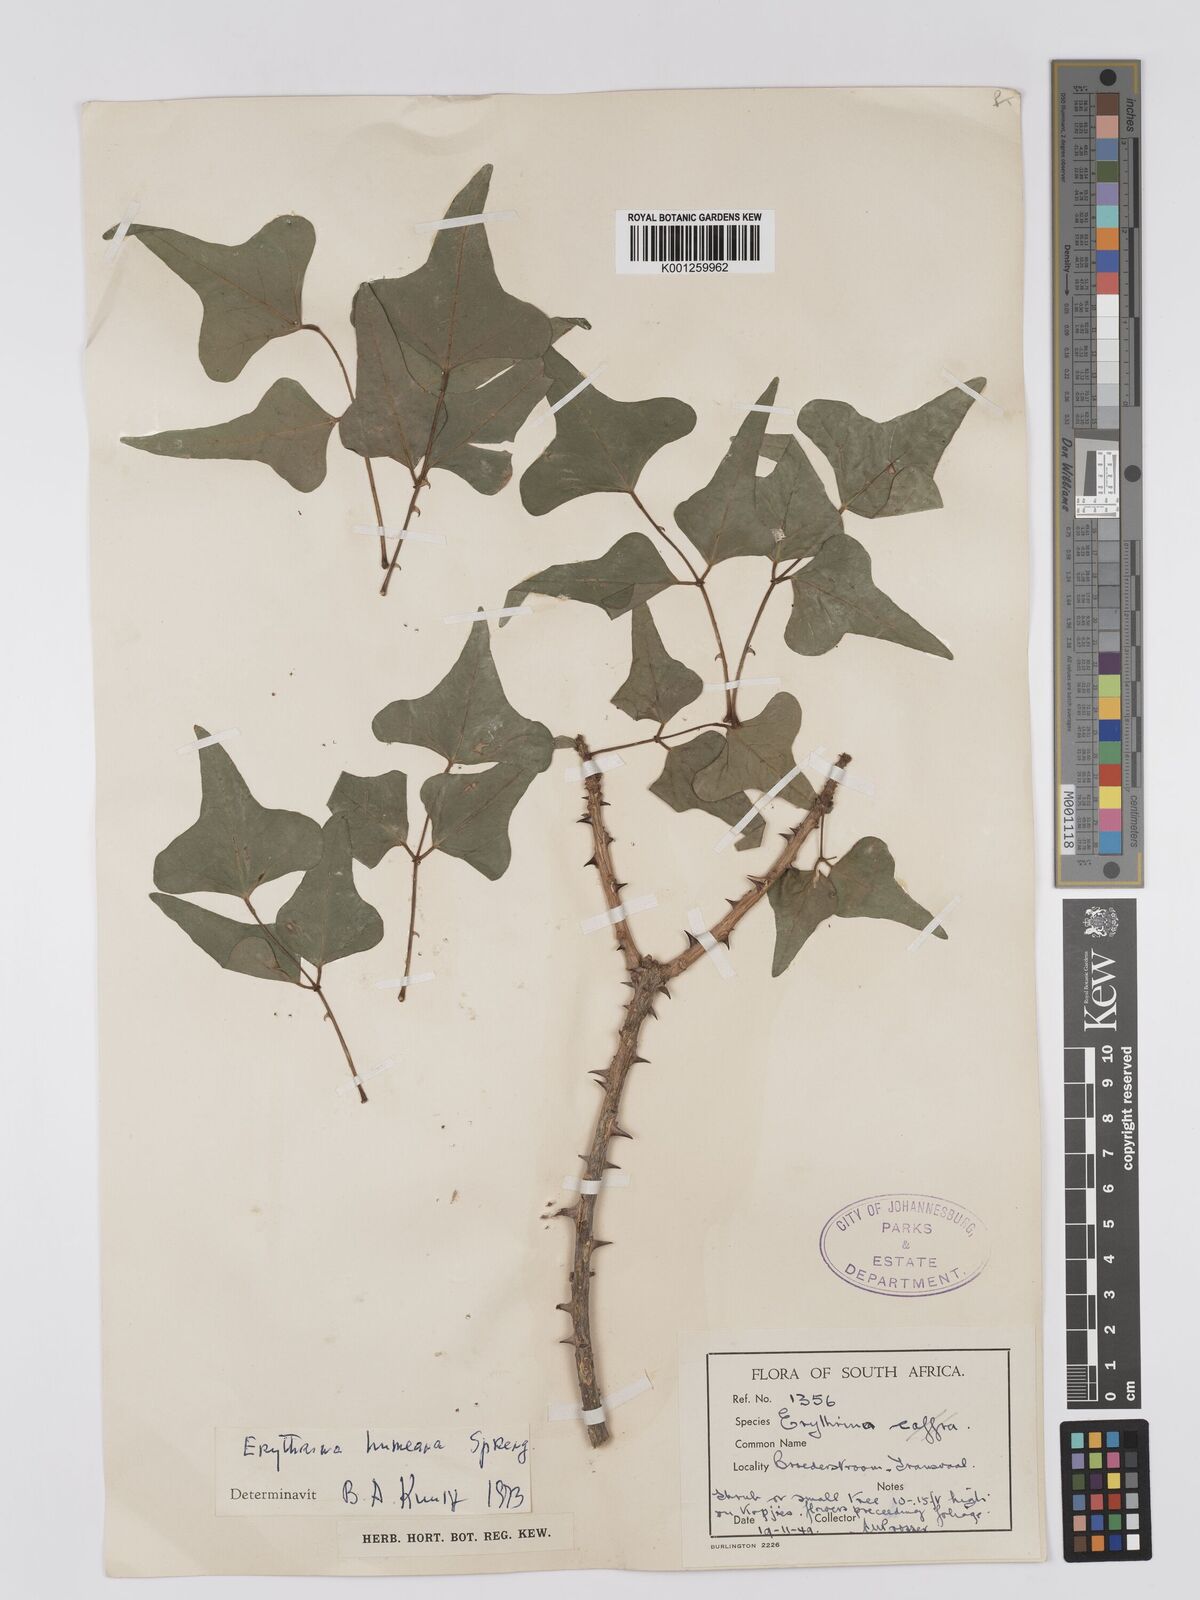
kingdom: Plantae
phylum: Tracheophyta
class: Magnoliopsida
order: Fabales
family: Fabaceae
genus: Erythrina
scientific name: Erythrina humeana
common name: Dwarf coral tree
